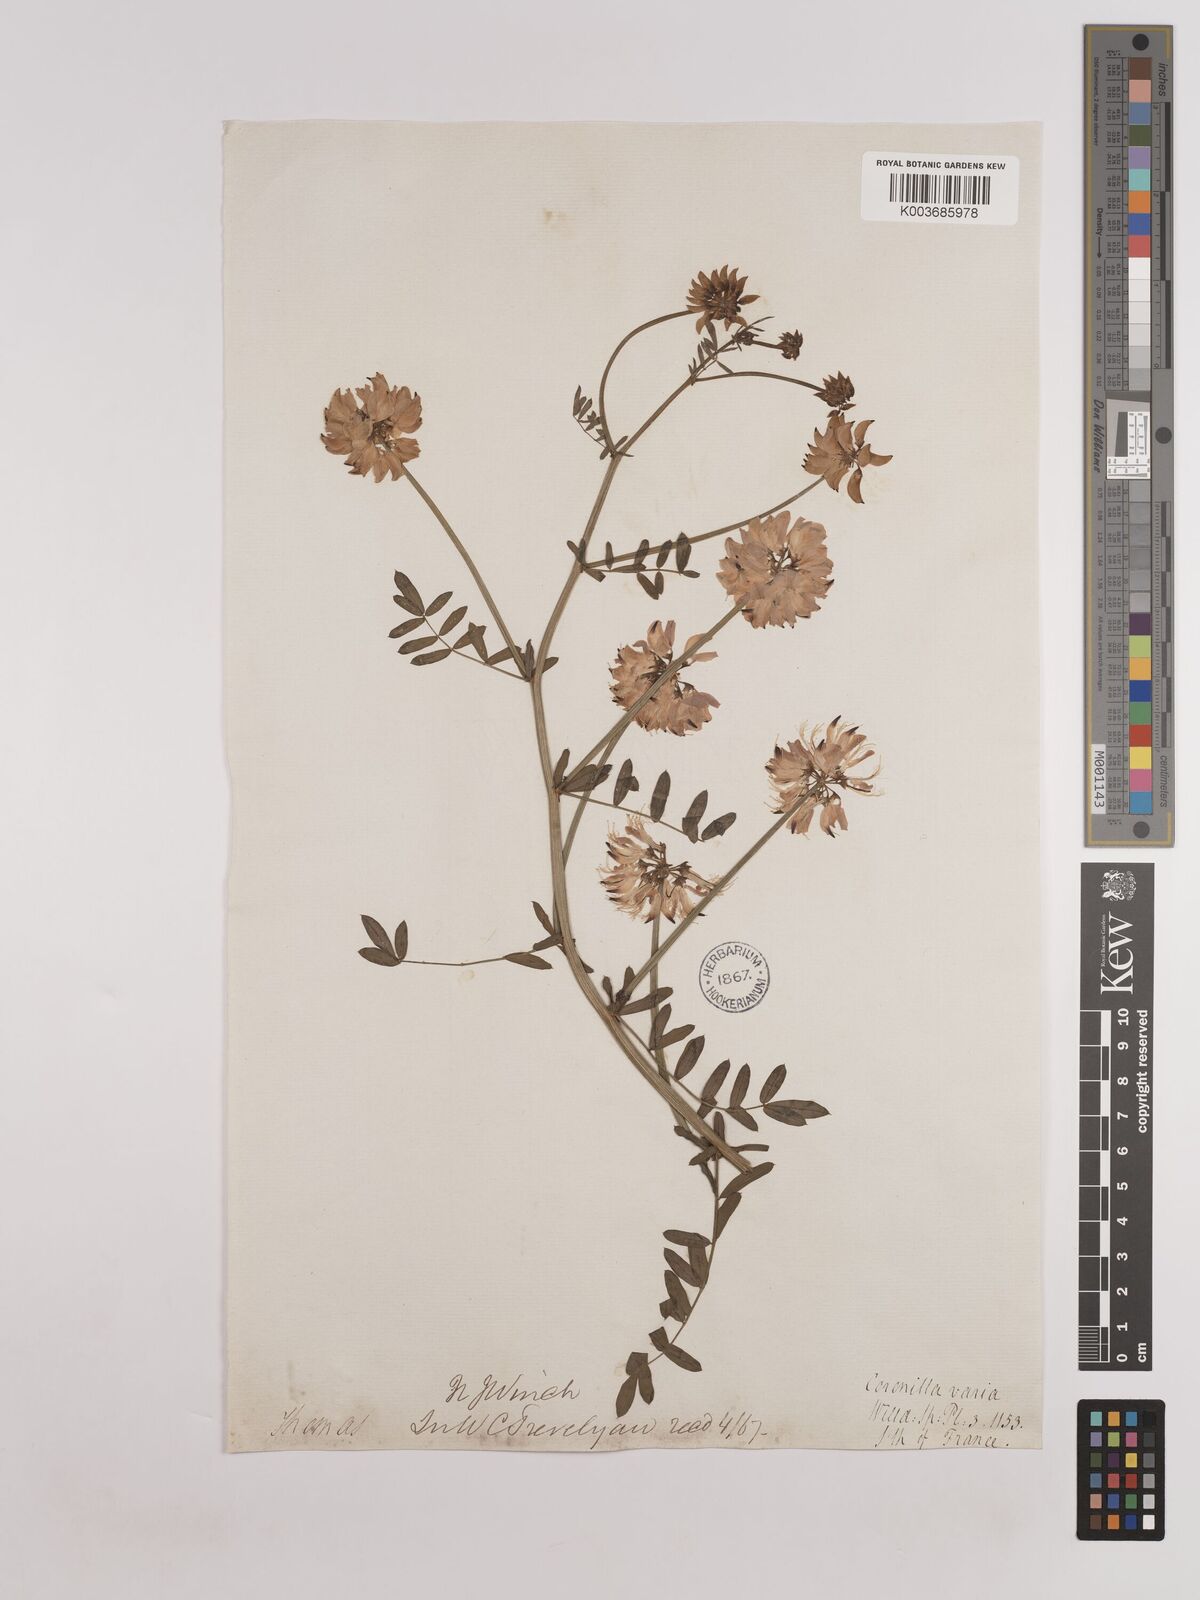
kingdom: Plantae
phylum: Tracheophyta
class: Magnoliopsida
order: Fabales
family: Fabaceae
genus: Coronilla
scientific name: Coronilla varia
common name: Crownvetch
